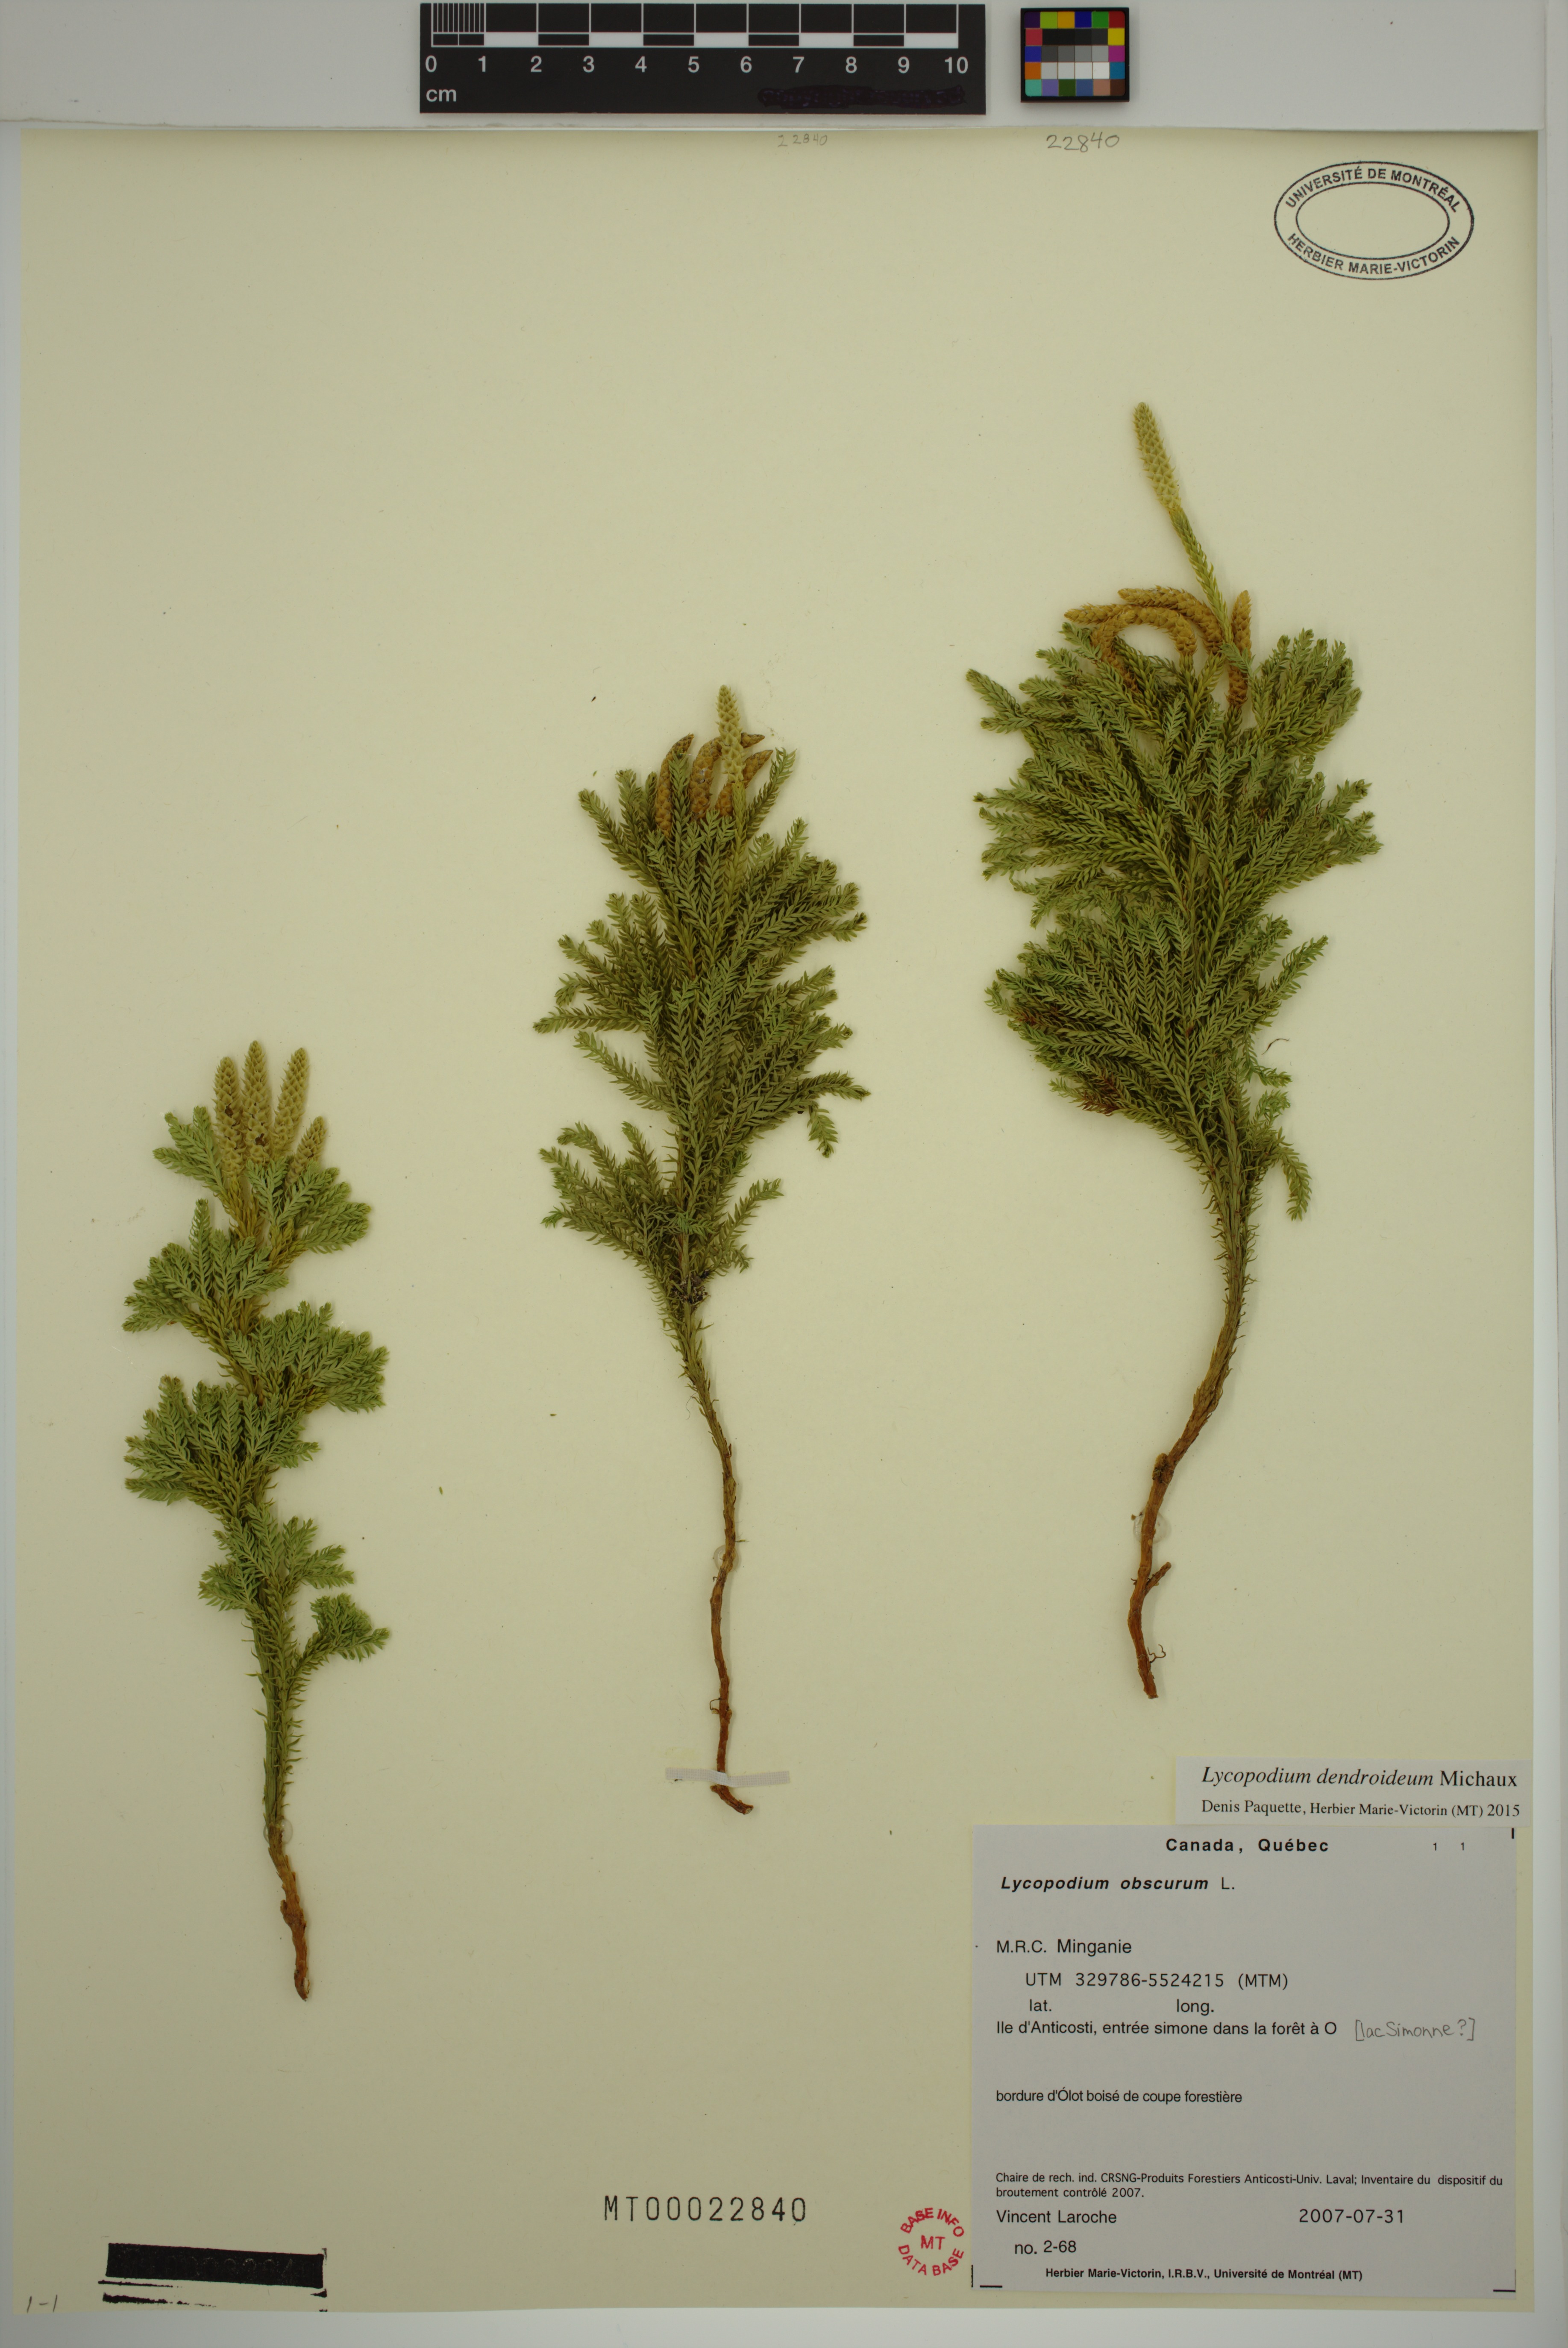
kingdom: Plantae
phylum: Tracheophyta
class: Lycopodiopsida
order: Lycopodiales
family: Lycopodiaceae
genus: Dendrolycopodium
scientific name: Dendrolycopodium dendroideum
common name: Northern tree-clubmoss
